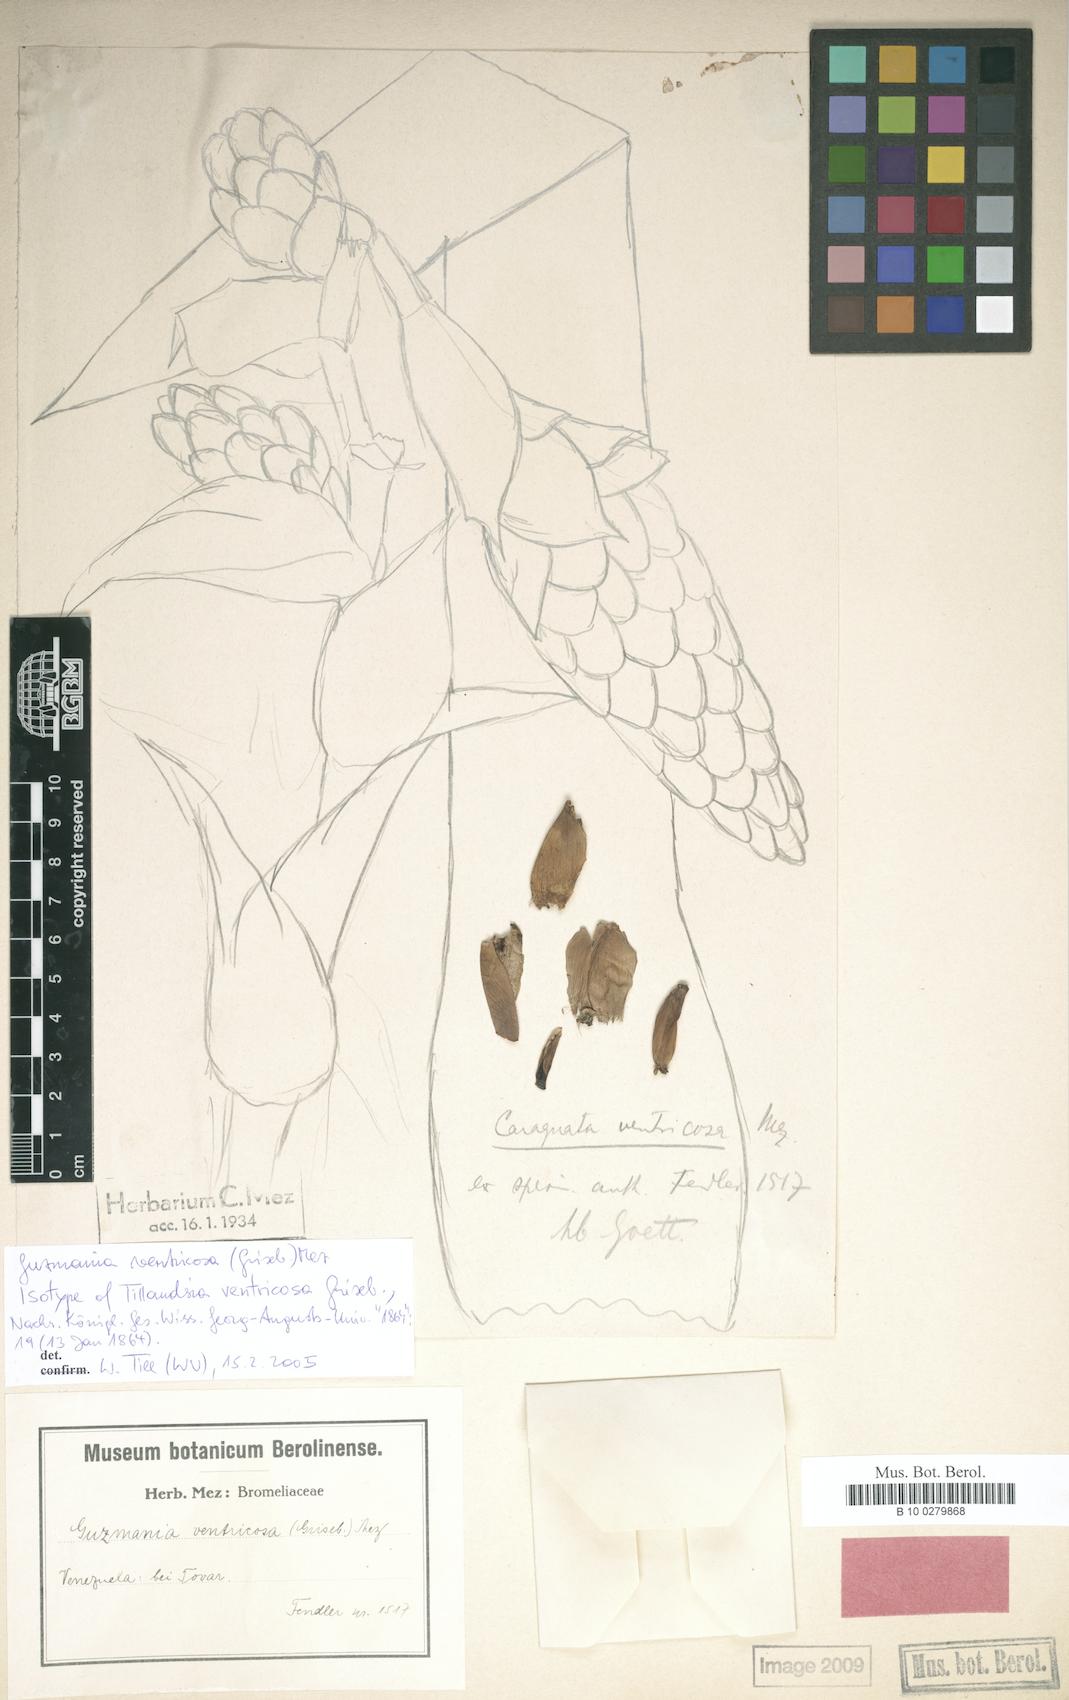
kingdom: Plantae
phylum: Tracheophyta
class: Liliopsida
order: Poales
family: Bromeliaceae
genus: Guzmania
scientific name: Guzmania ventricosa
